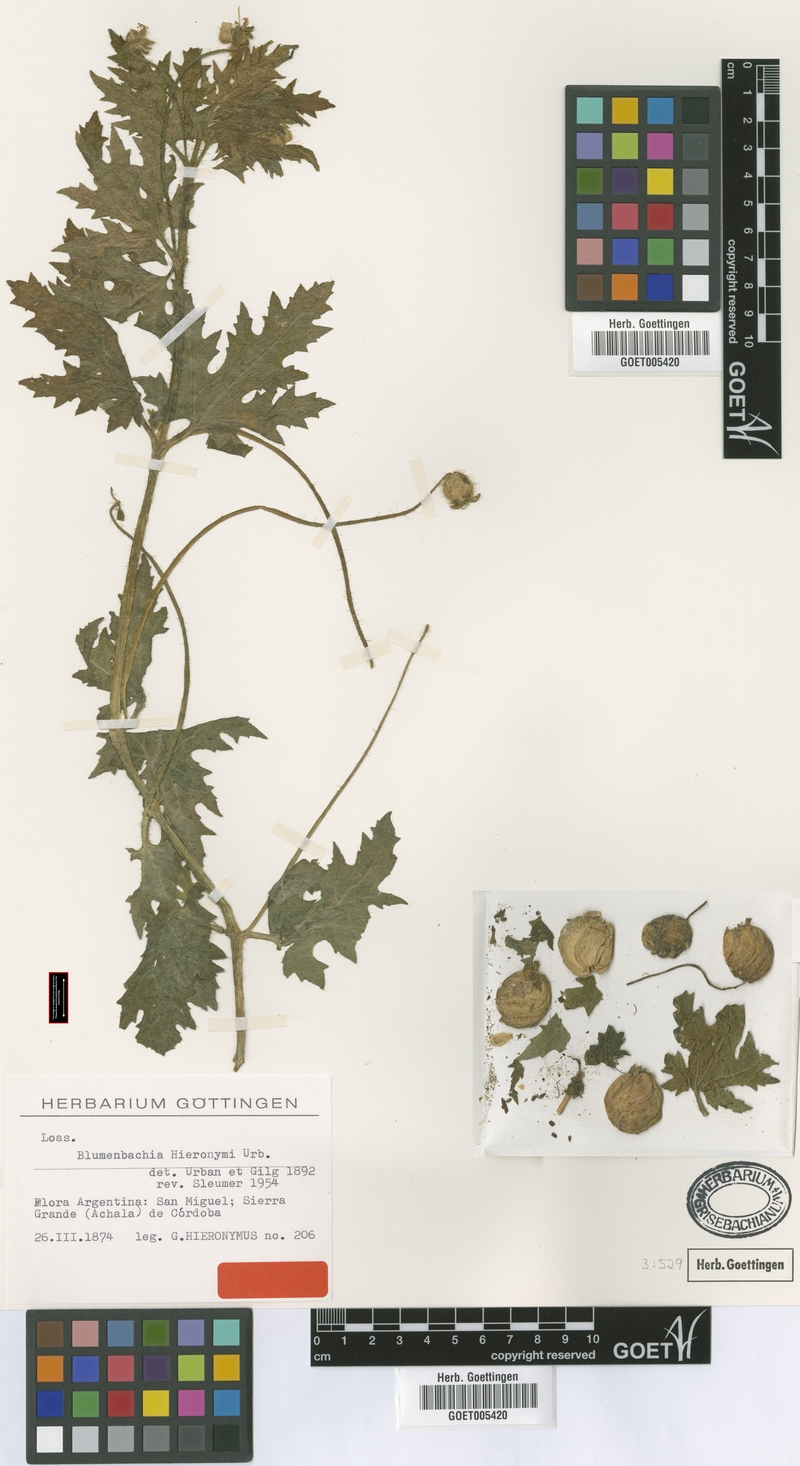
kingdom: Plantae
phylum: Tracheophyta
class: Magnoliopsida
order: Cornales
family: Loasaceae
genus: Blumenbachia
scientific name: Blumenbachia hieronymi
